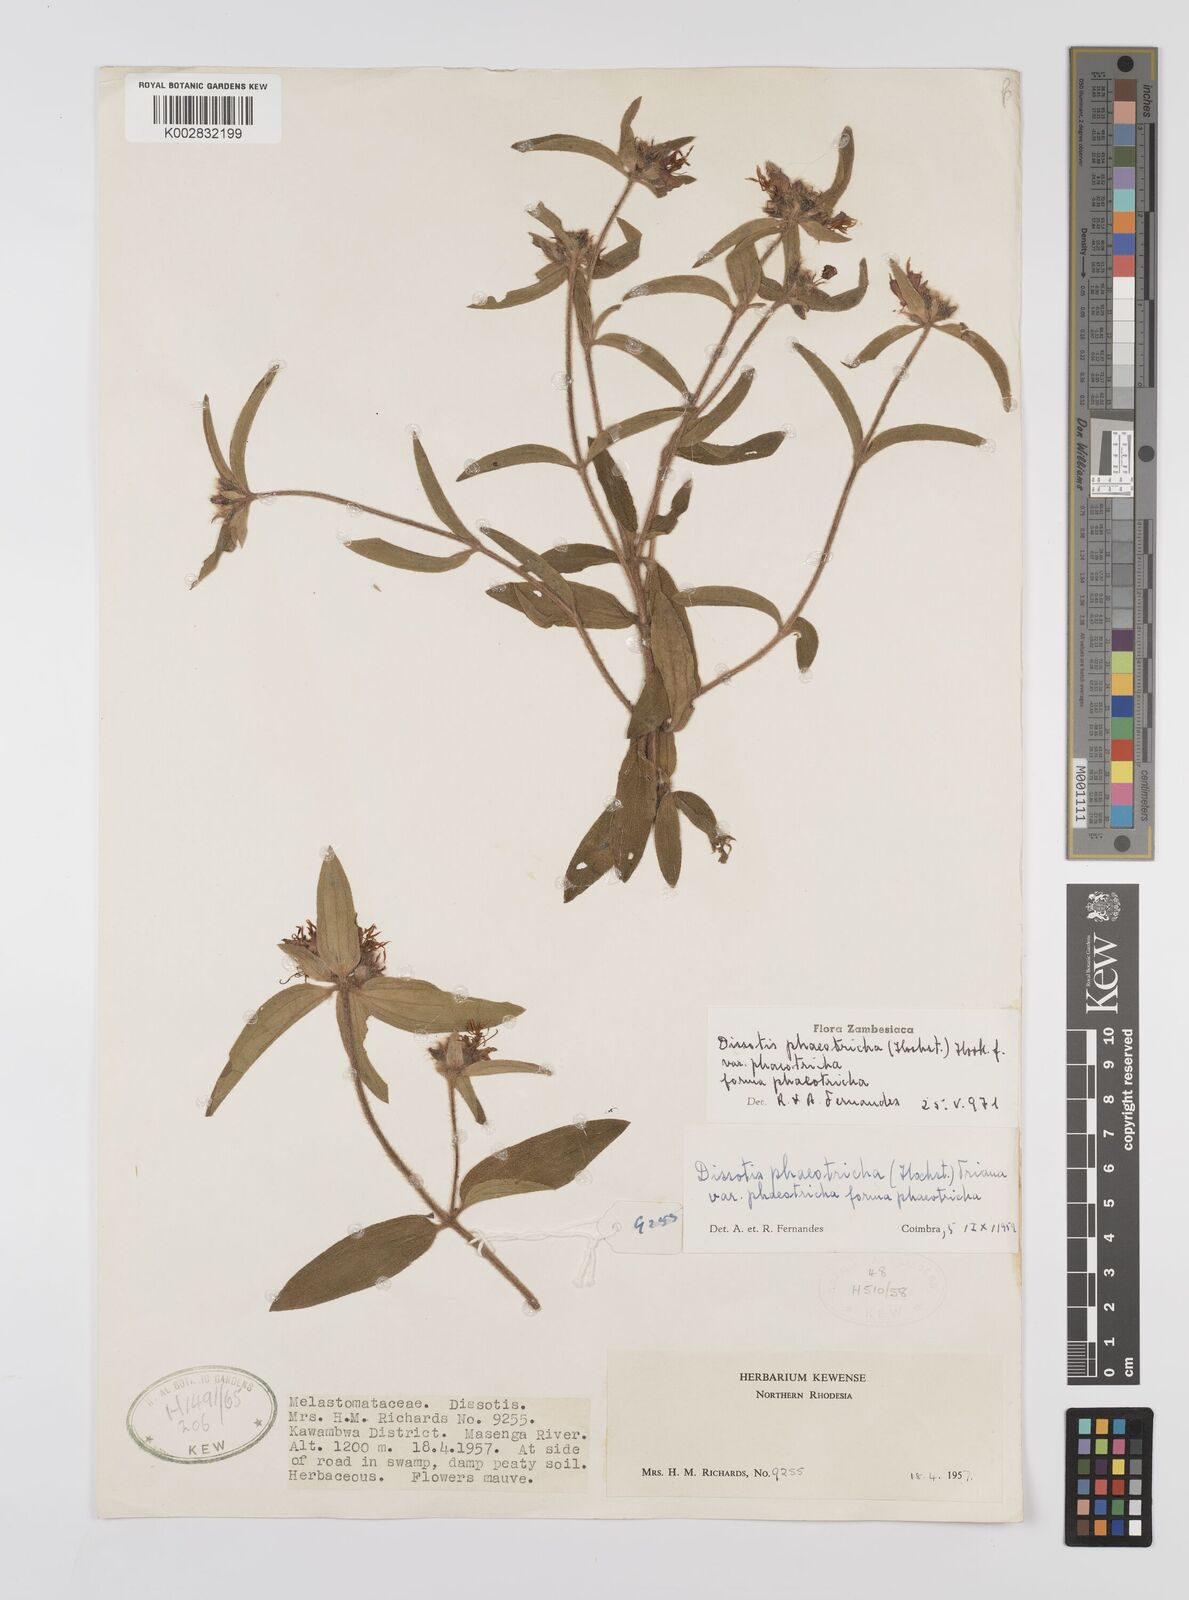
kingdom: Plantae
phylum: Tracheophyta
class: Magnoliopsida
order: Myrtales
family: Melastomataceae
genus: Antherotoma
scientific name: Antherotoma phaeotricha
